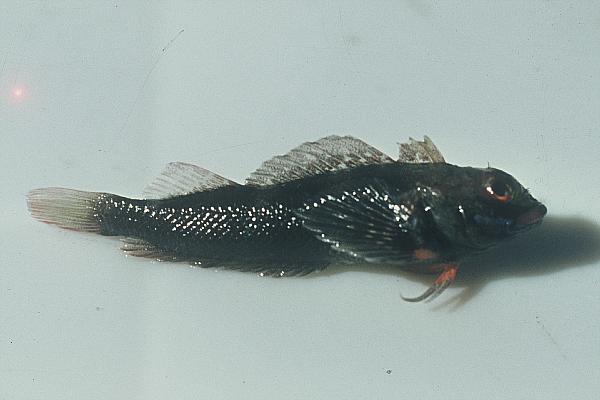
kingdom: Animalia
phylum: Chordata
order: Perciformes
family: Tripterygiidae
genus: Helcogramma
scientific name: Helcogramma rharhabe
